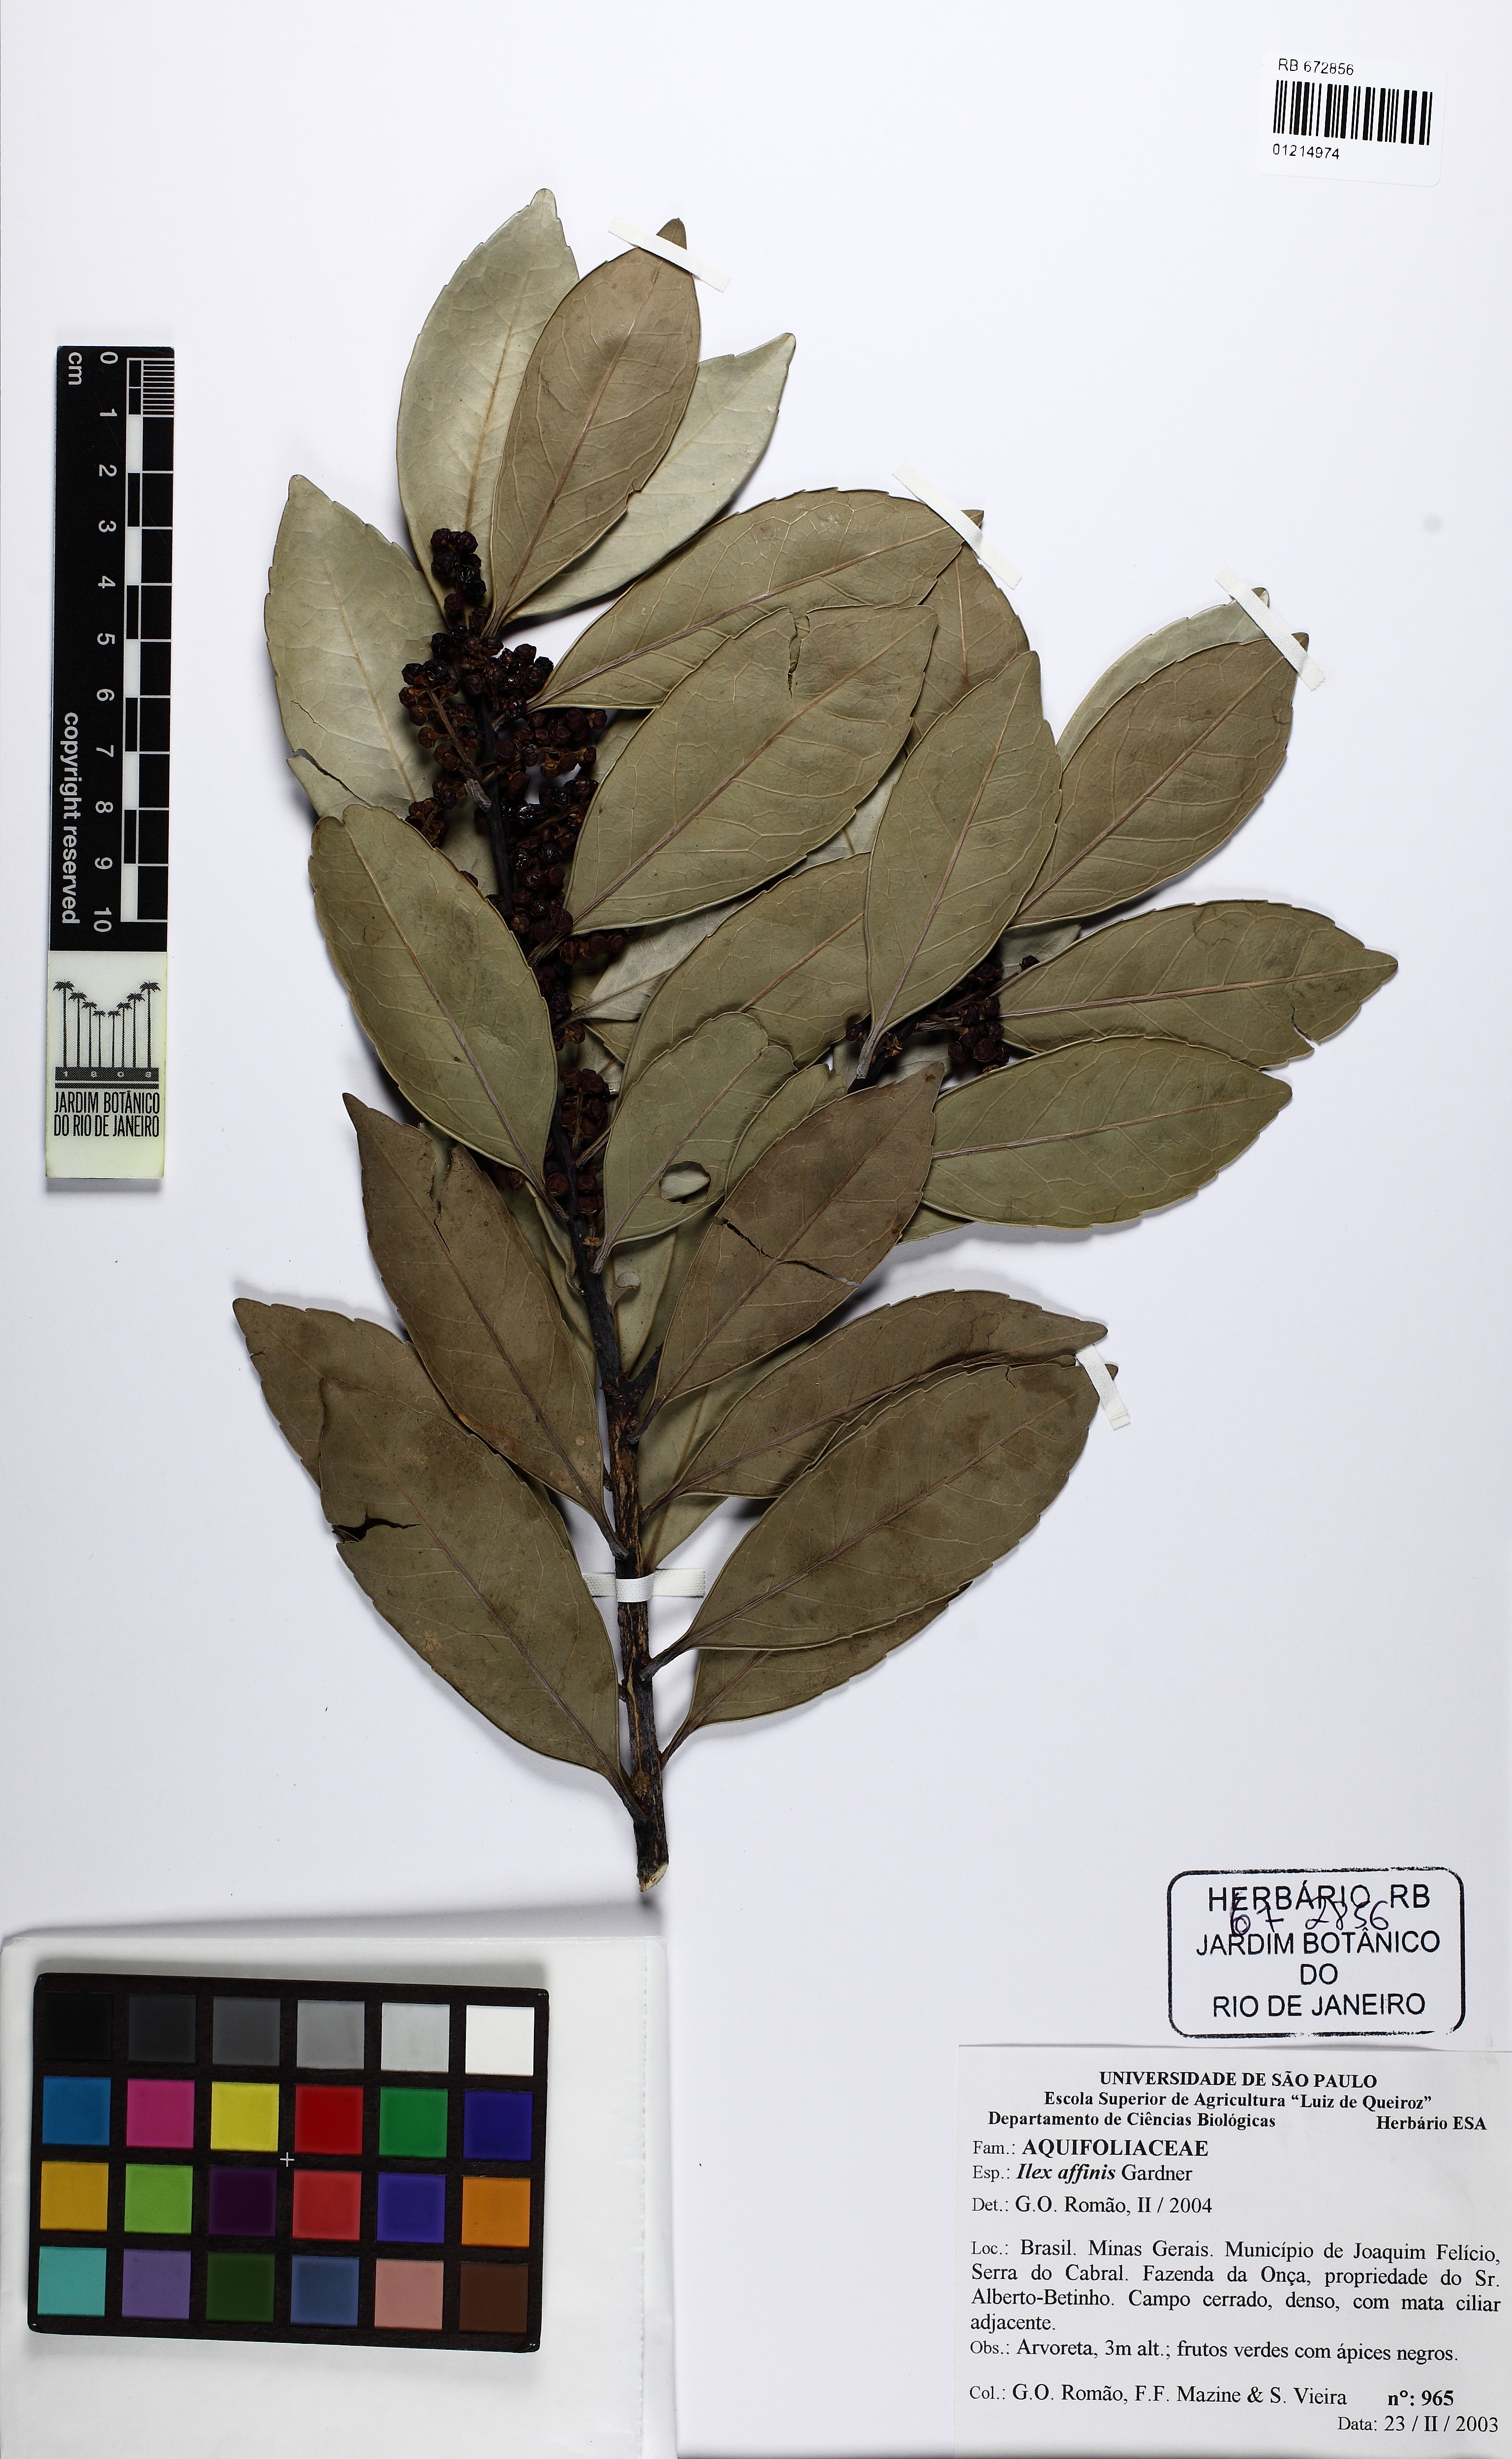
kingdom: Plantae
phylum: Tracheophyta
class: Magnoliopsida
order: Aquifoliales
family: Aquifoliaceae
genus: Ilex
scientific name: Ilex affinis
